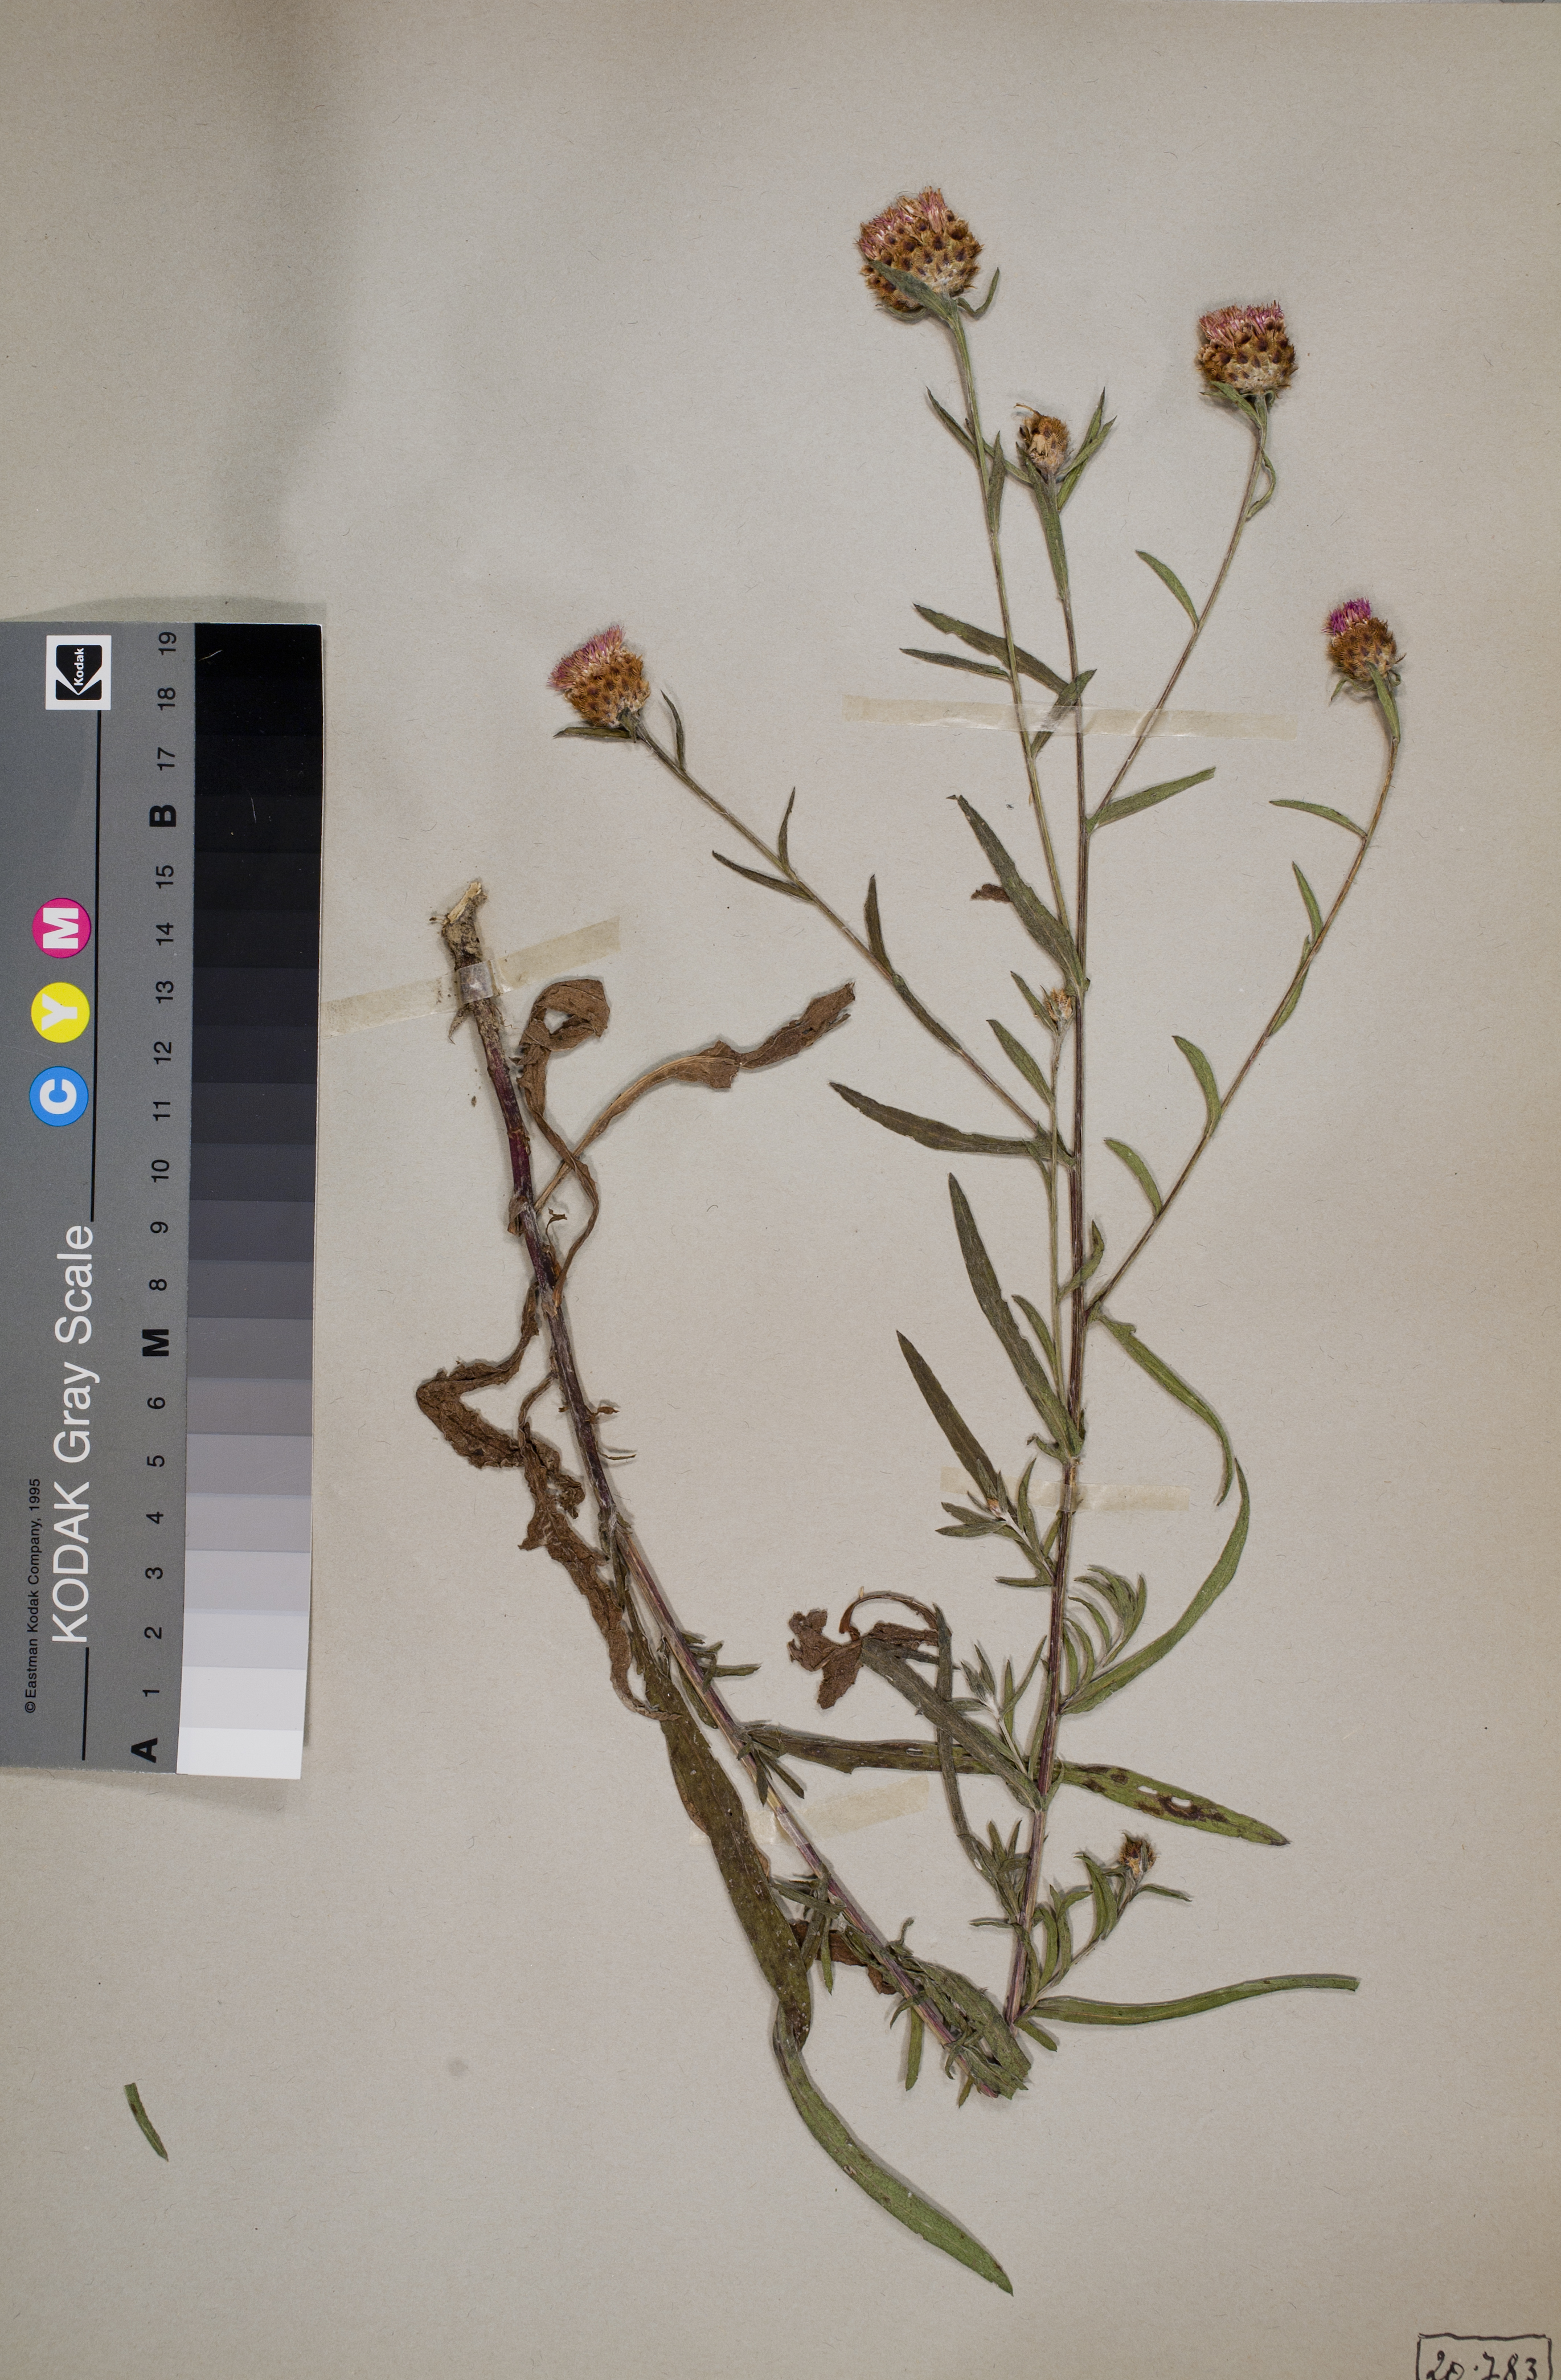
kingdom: Plantae
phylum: Tracheophyta
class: Magnoliopsida
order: Asterales
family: Asteraceae
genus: Centaurea
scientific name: Centaurea
